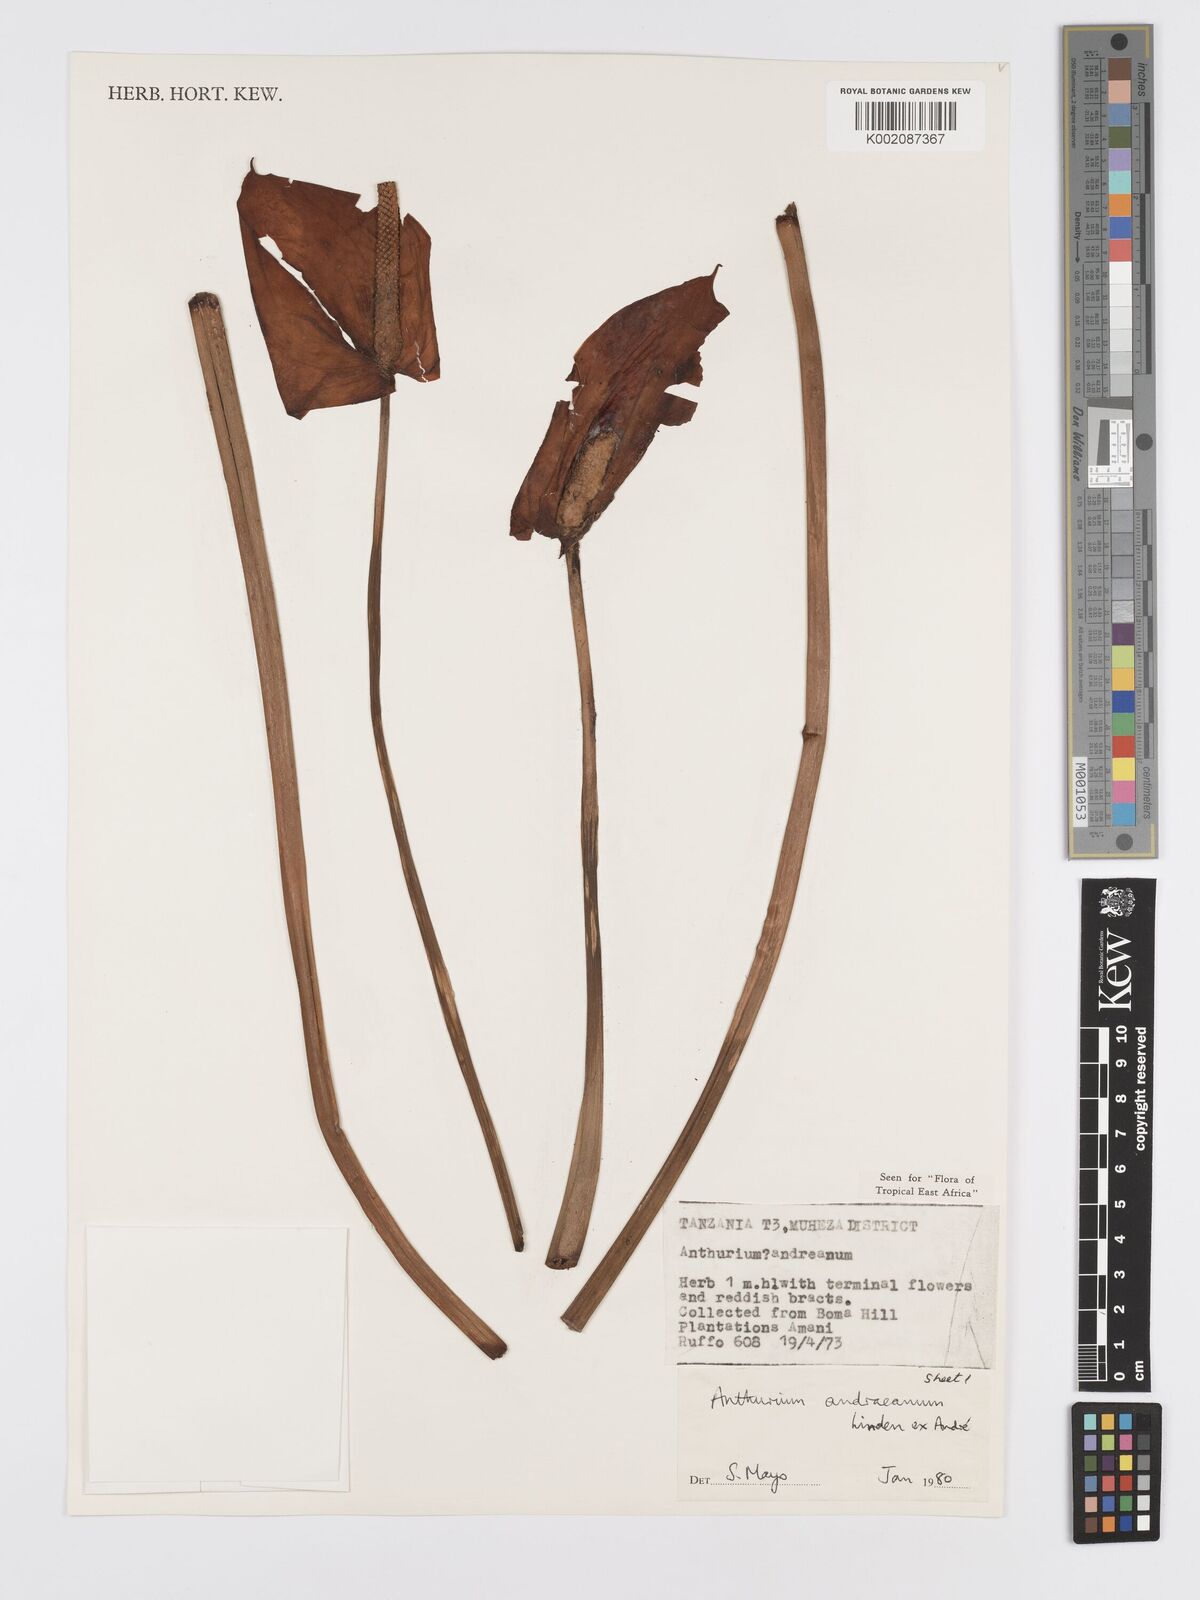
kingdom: Plantae
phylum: Tracheophyta
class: Liliopsida
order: Alismatales
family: Araceae
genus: Anthurium
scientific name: Anthurium andraeanum
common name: Flamingo-flower
